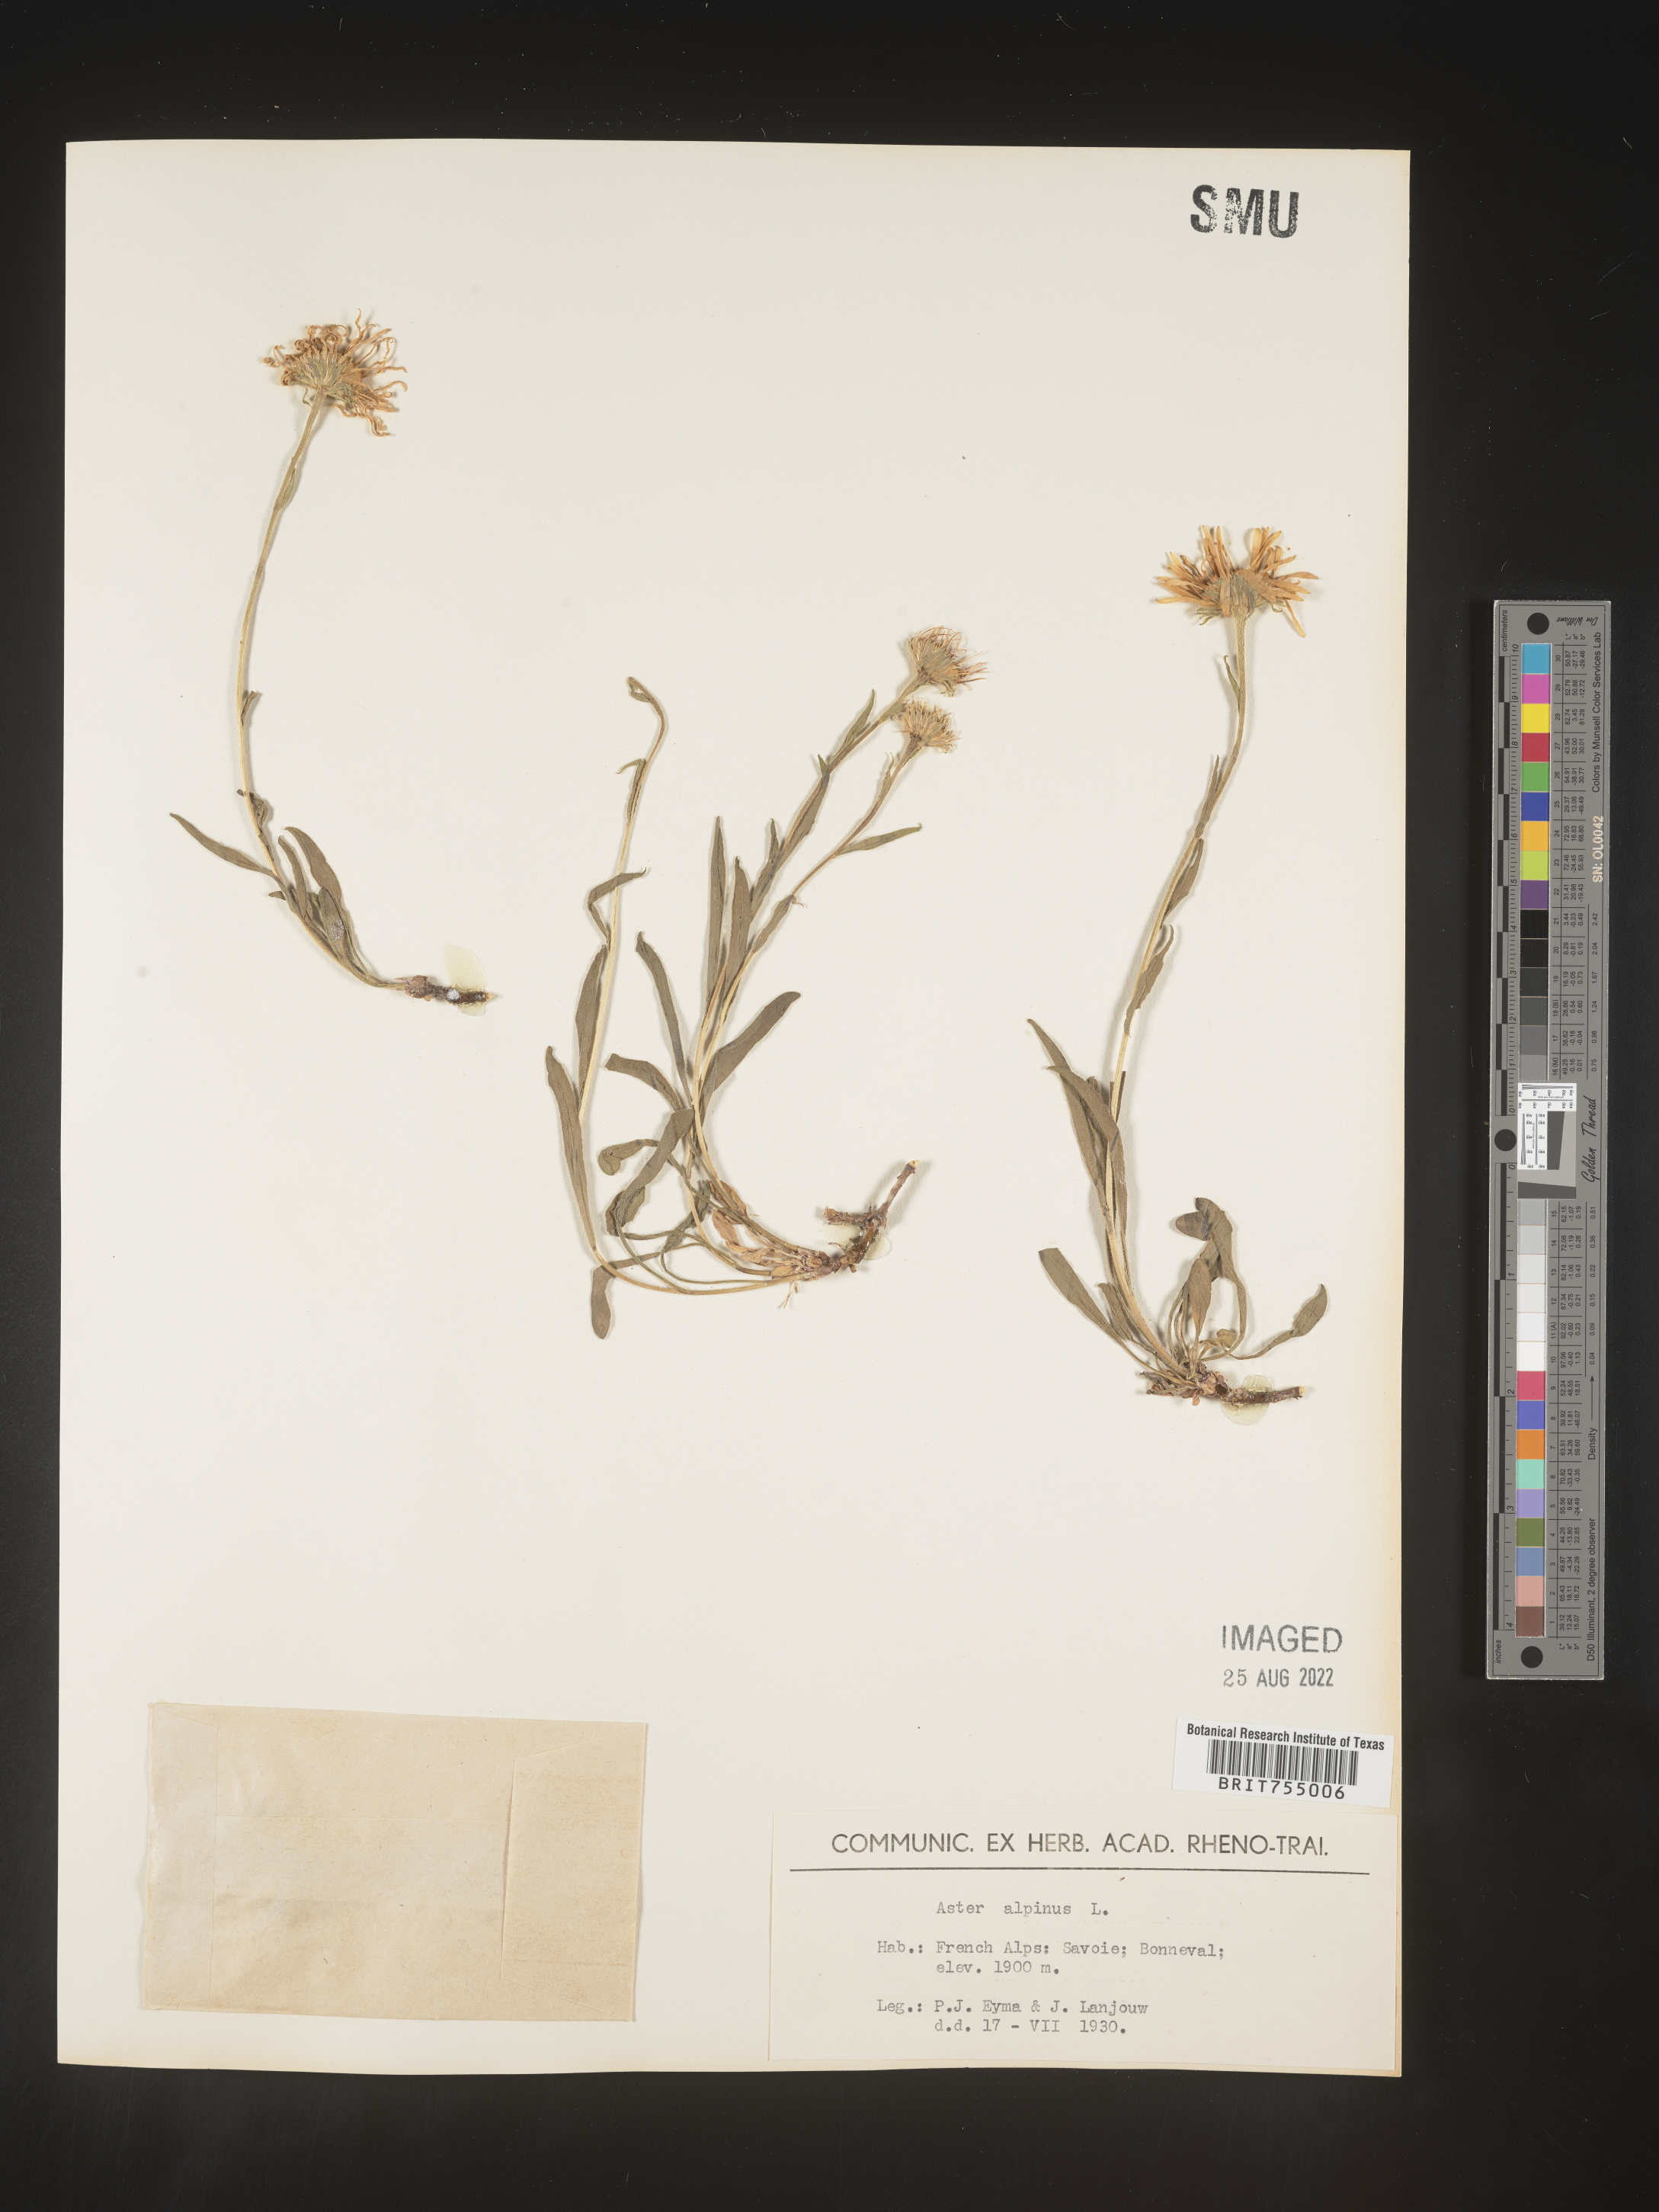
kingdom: Plantae
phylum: Tracheophyta
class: Magnoliopsida
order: Asterales
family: Asteraceae
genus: Symphyotrichum
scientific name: Symphyotrichum
